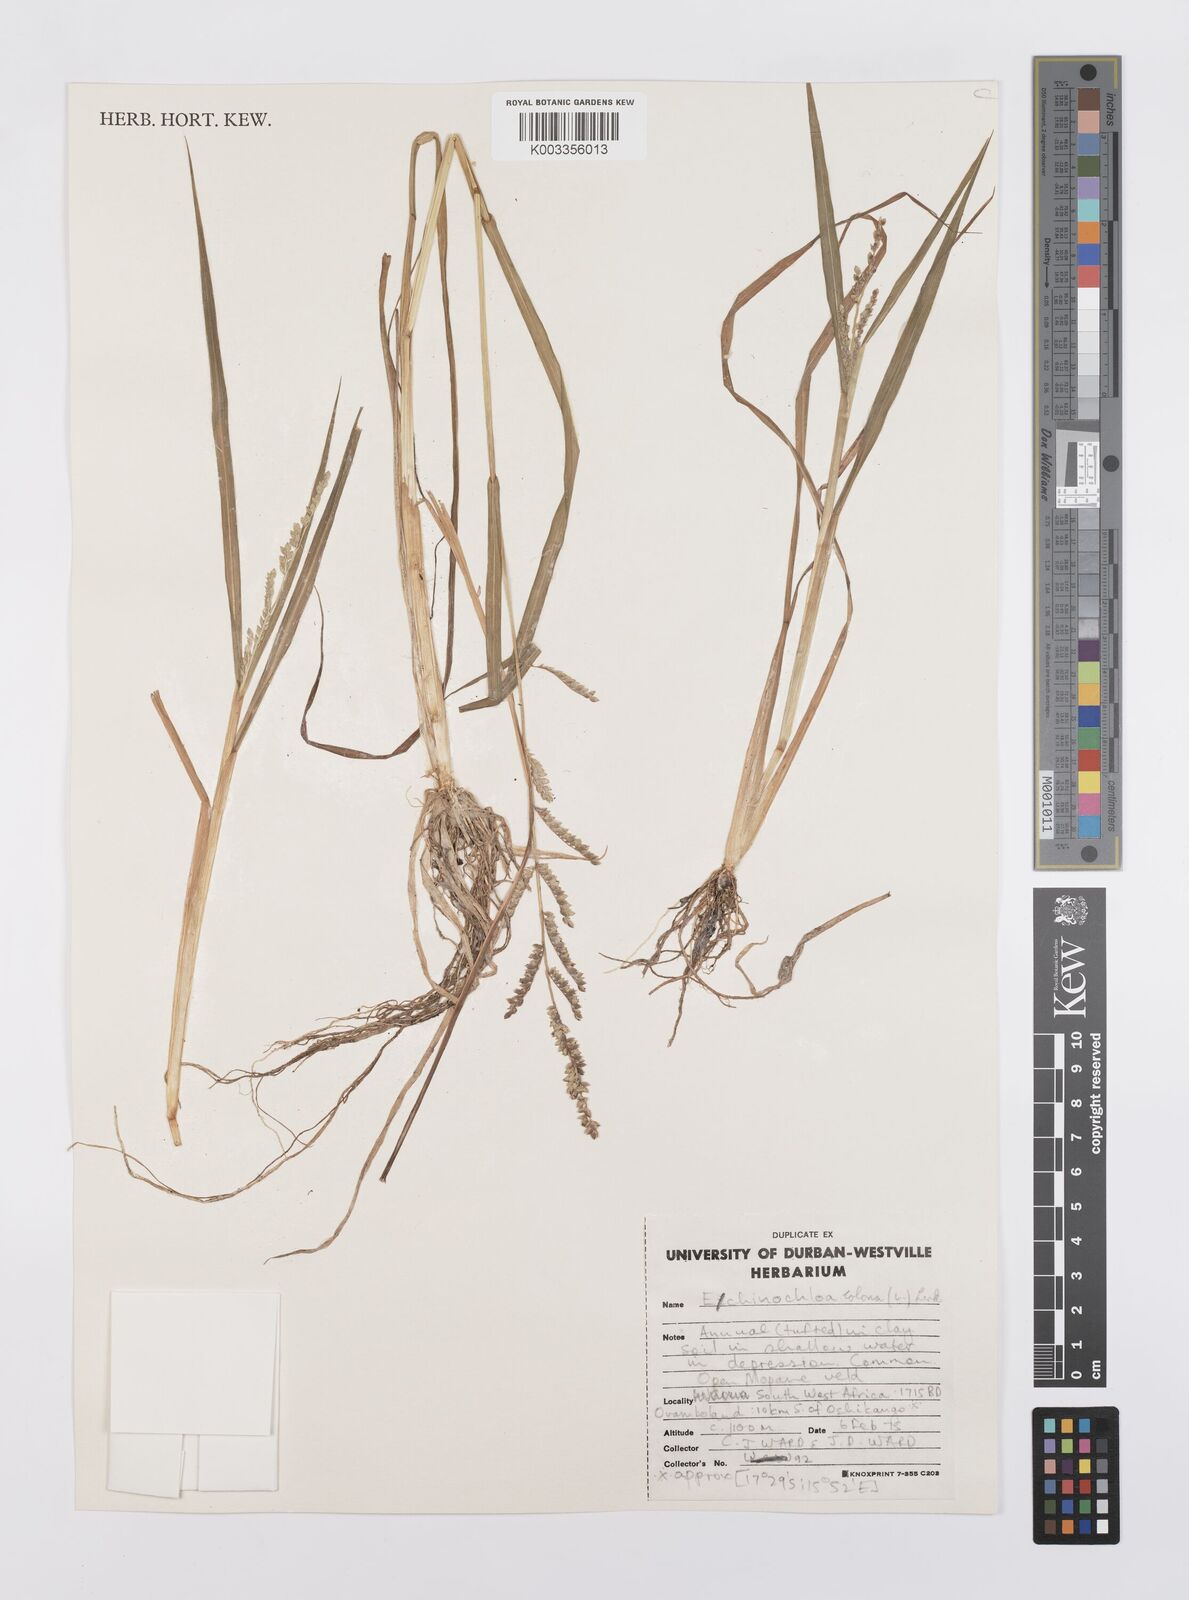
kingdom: Plantae
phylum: Tracheophyta
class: Liliopsida
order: Poales
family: Poaceae
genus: Echinochloa
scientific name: Echinochloa colonum
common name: Jungle rice
